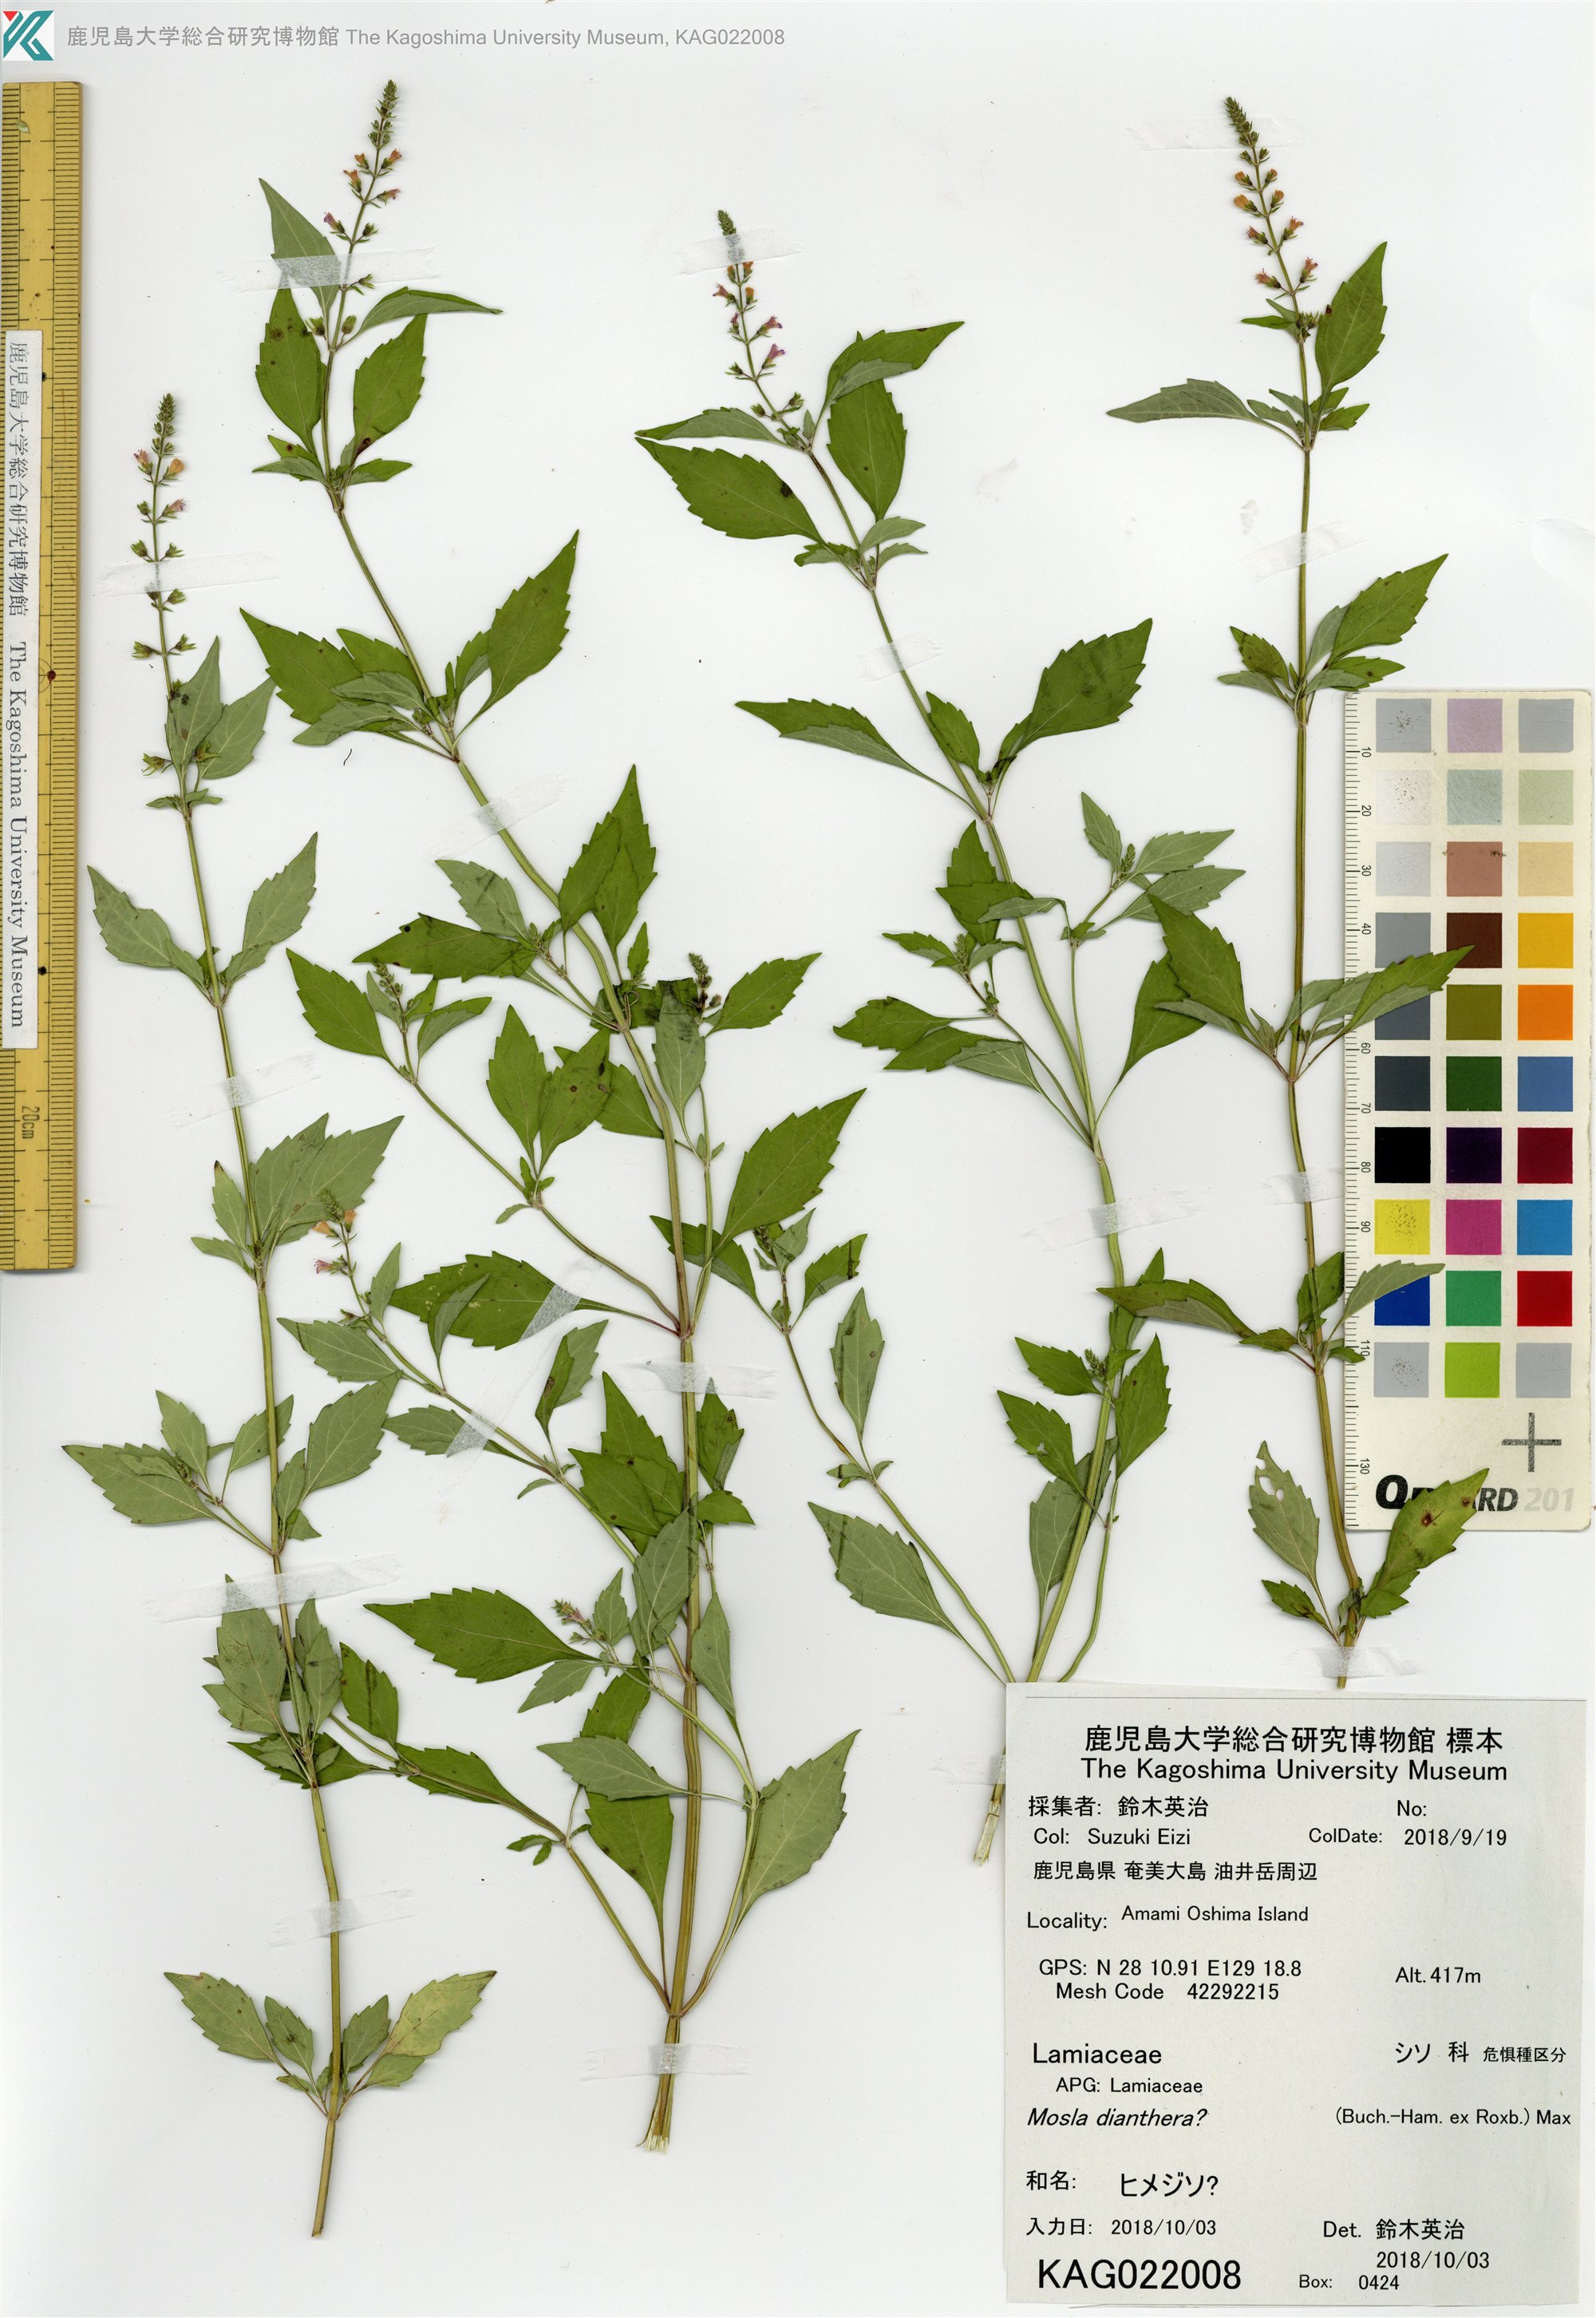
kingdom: Plantae
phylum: Tracheophyta
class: Magnoliopsida
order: Lamiales
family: Lamiaceae
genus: Mosla
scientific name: Mosla
